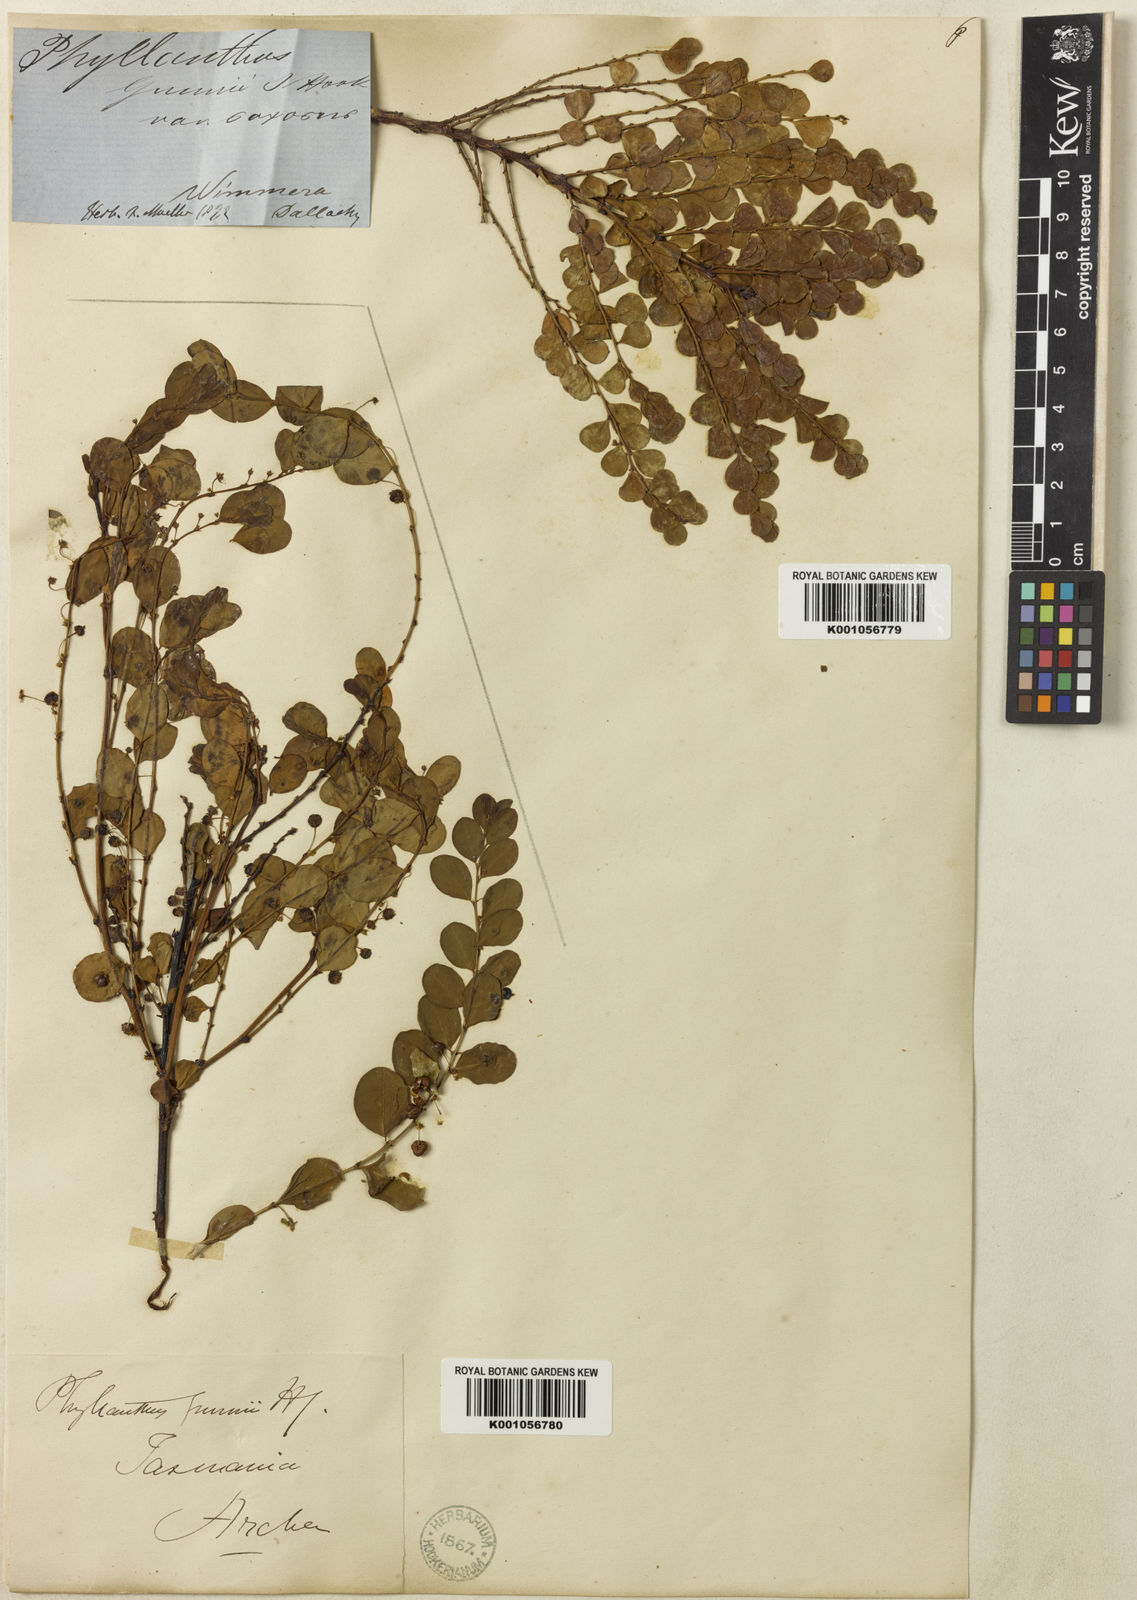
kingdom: Plantae
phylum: Tracheophyta
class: Magnoliopsida
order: Malpighiales
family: Phyllanthaceae
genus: Phyllanthus
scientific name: Phyllanthus gunnii
